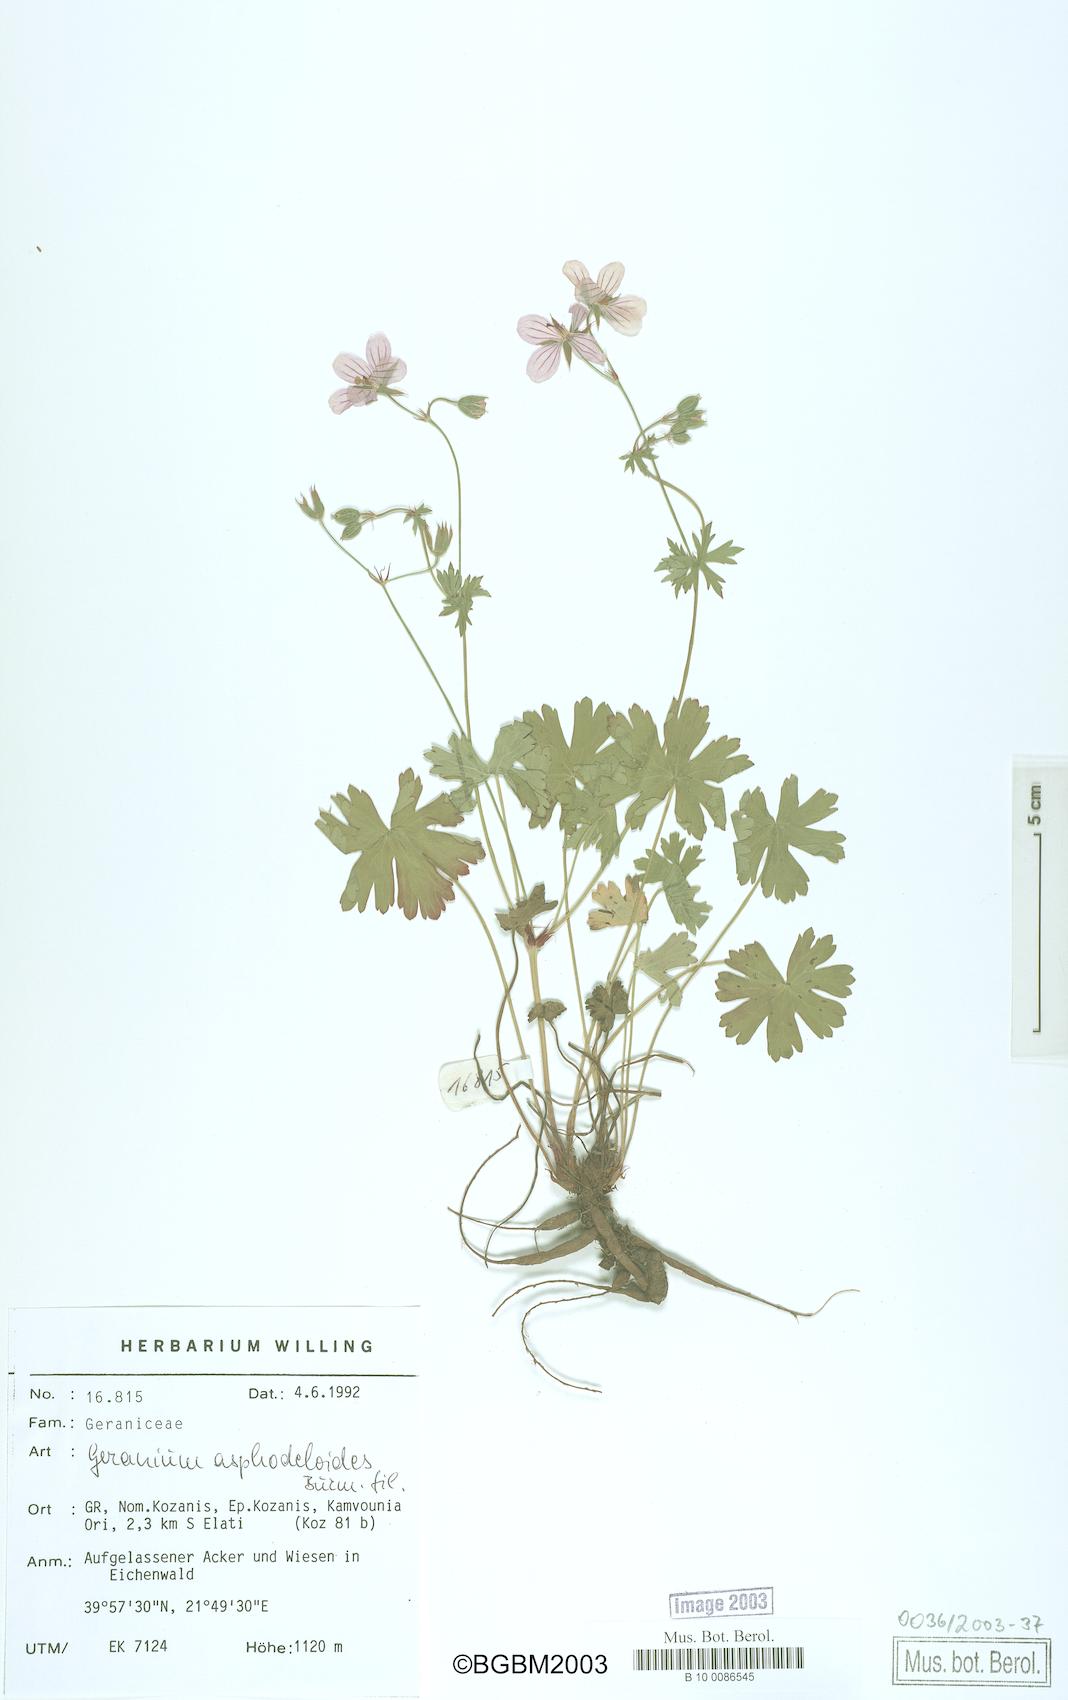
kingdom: Plantae
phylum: Tracheophyta
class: Magnoliopsida
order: Geraniales
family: Geraniaceae
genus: Geranium
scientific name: Geranium asphodeloides
